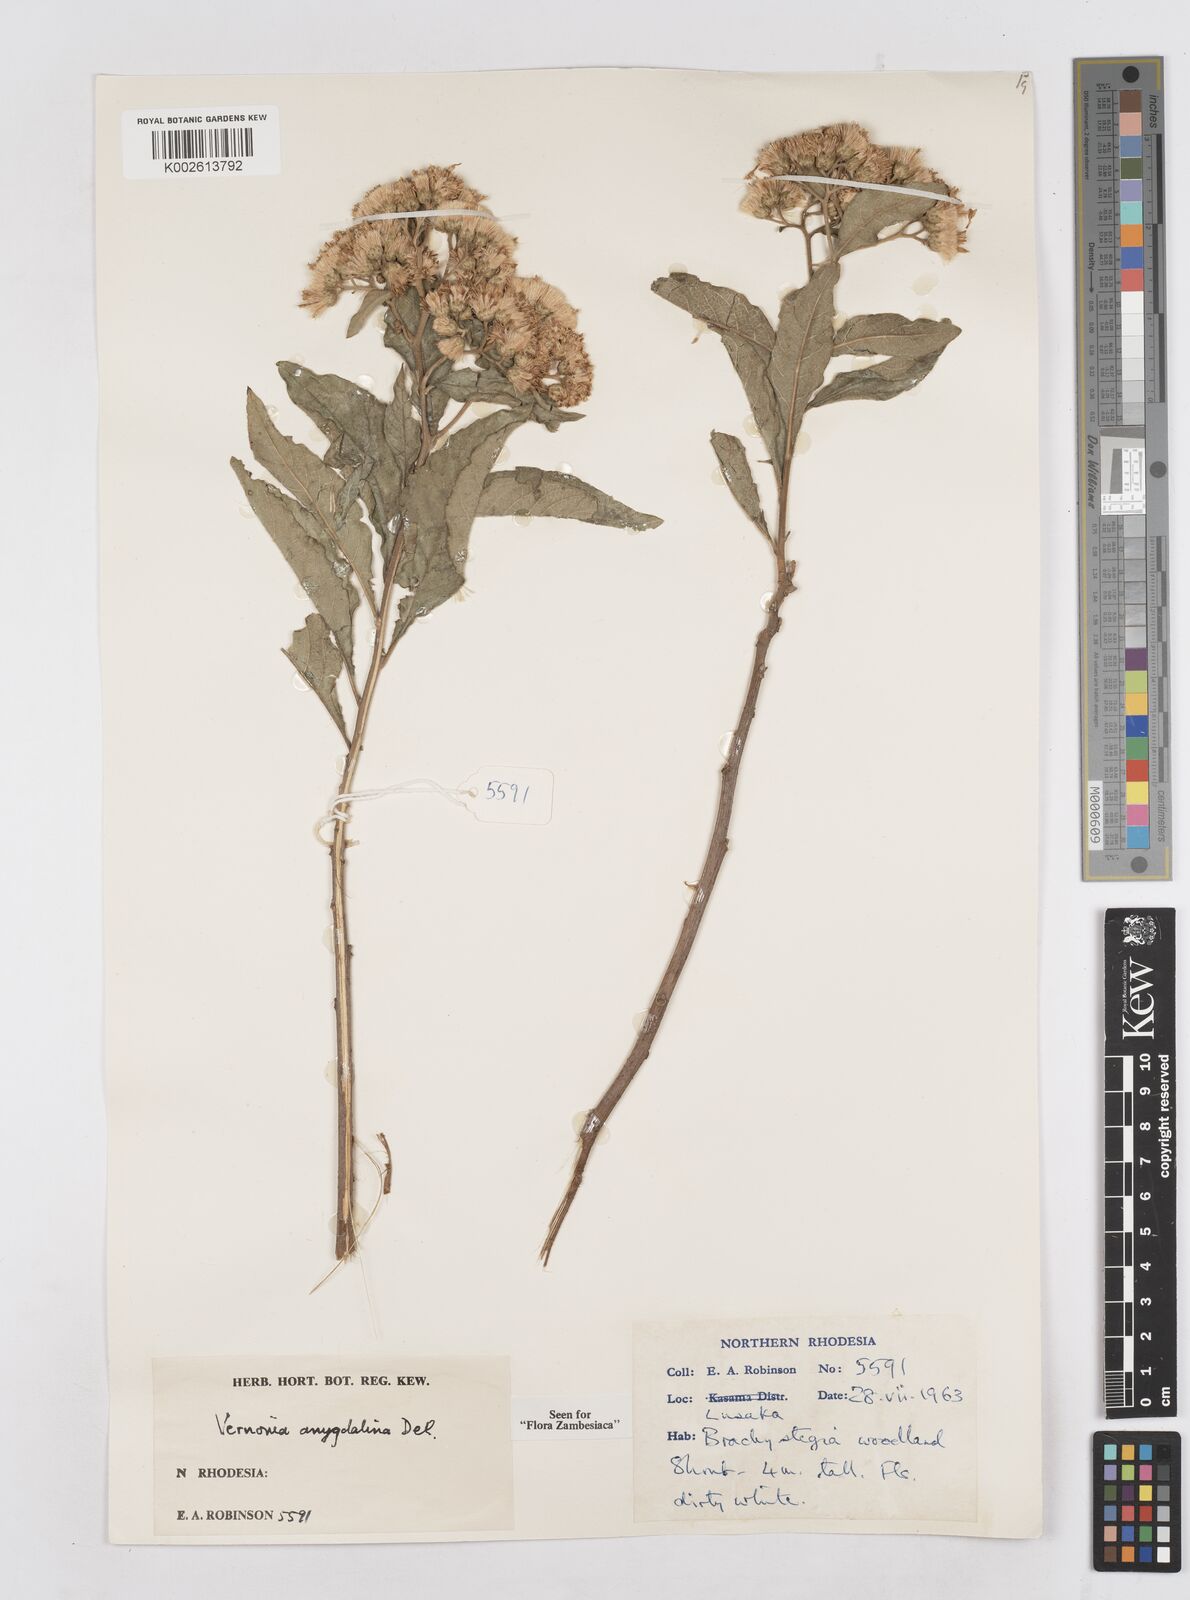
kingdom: Plantae
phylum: Tracheophyta
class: Magnoliopsida
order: Asterales
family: Asteraceae
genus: Gymnanthemum
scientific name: Gymnanthemum amygdalinum
